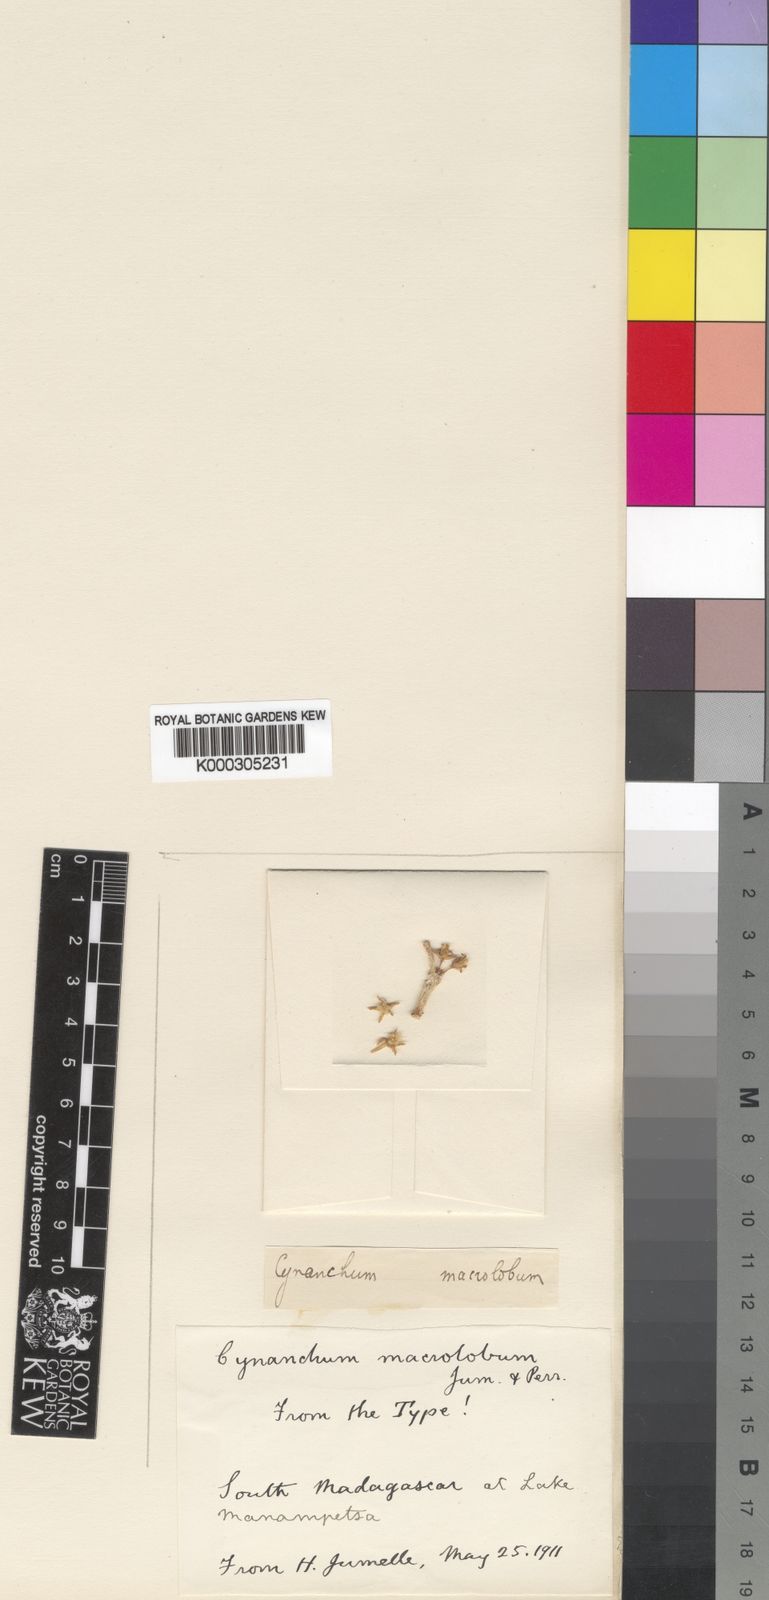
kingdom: Plantae
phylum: Tracheophyta
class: Magnoliopsida
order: Gentianales
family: Apocynaceae
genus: Cynanchum
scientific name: Cynanchum macrolobum
